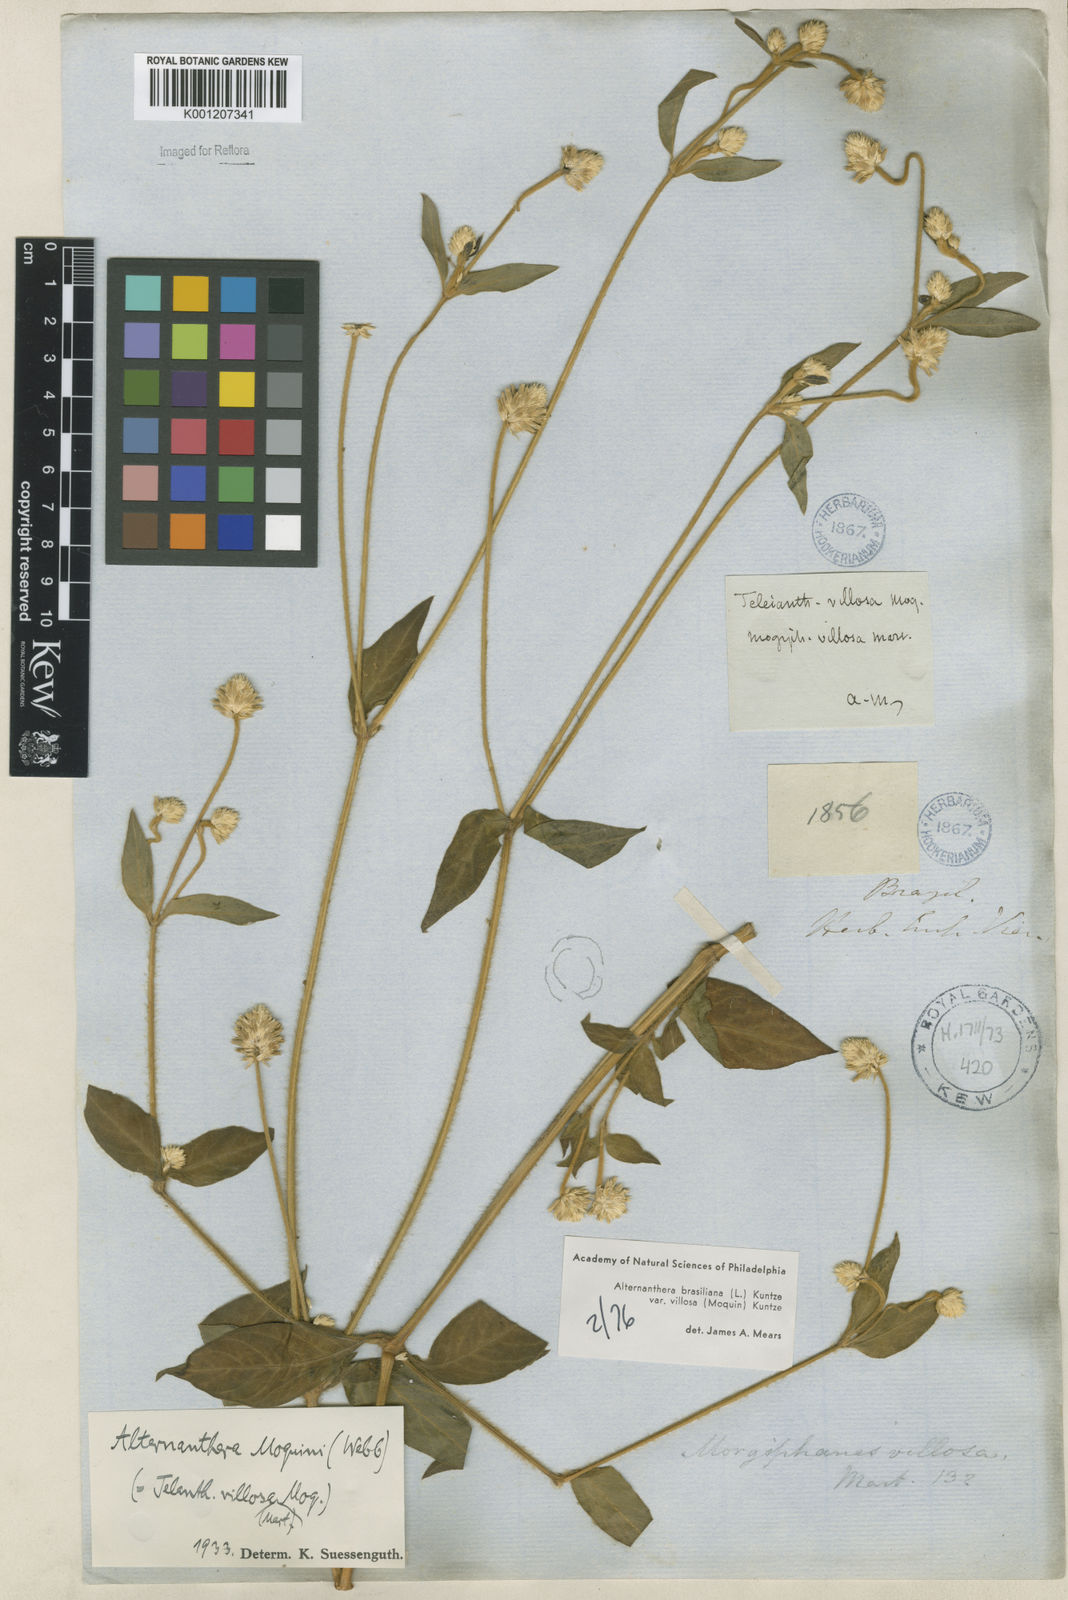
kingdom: Plantae
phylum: Tracheophyta
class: Magnoliopsida
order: Caryophyllales
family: Amaranthaceae
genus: Alternanthera
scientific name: Alternanthera ramosissima
